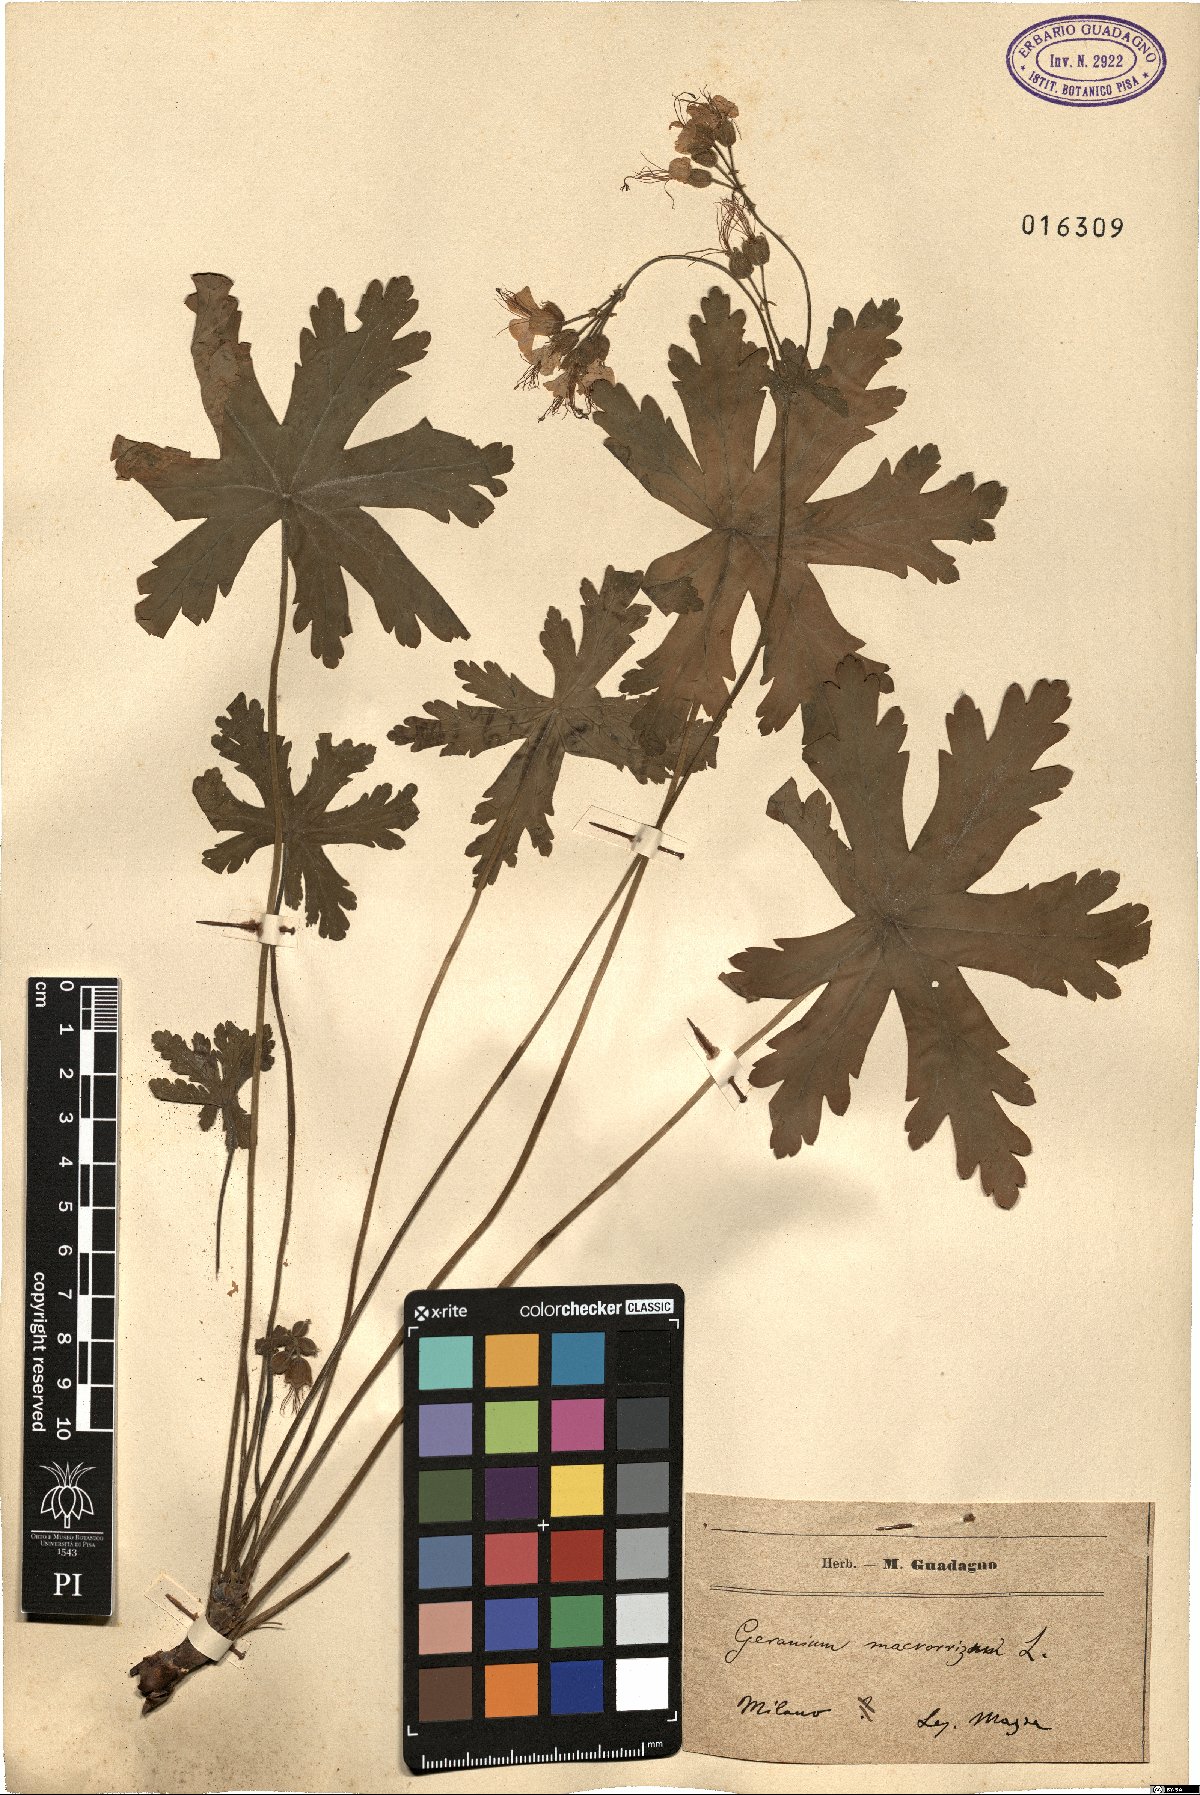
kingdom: Plantae
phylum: Tracheophyta
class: Magnoliopsida
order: Geraniales
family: Geraniaceae
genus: Geranium
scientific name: Geranium macrorrhizum
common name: Rock crane's-bill
